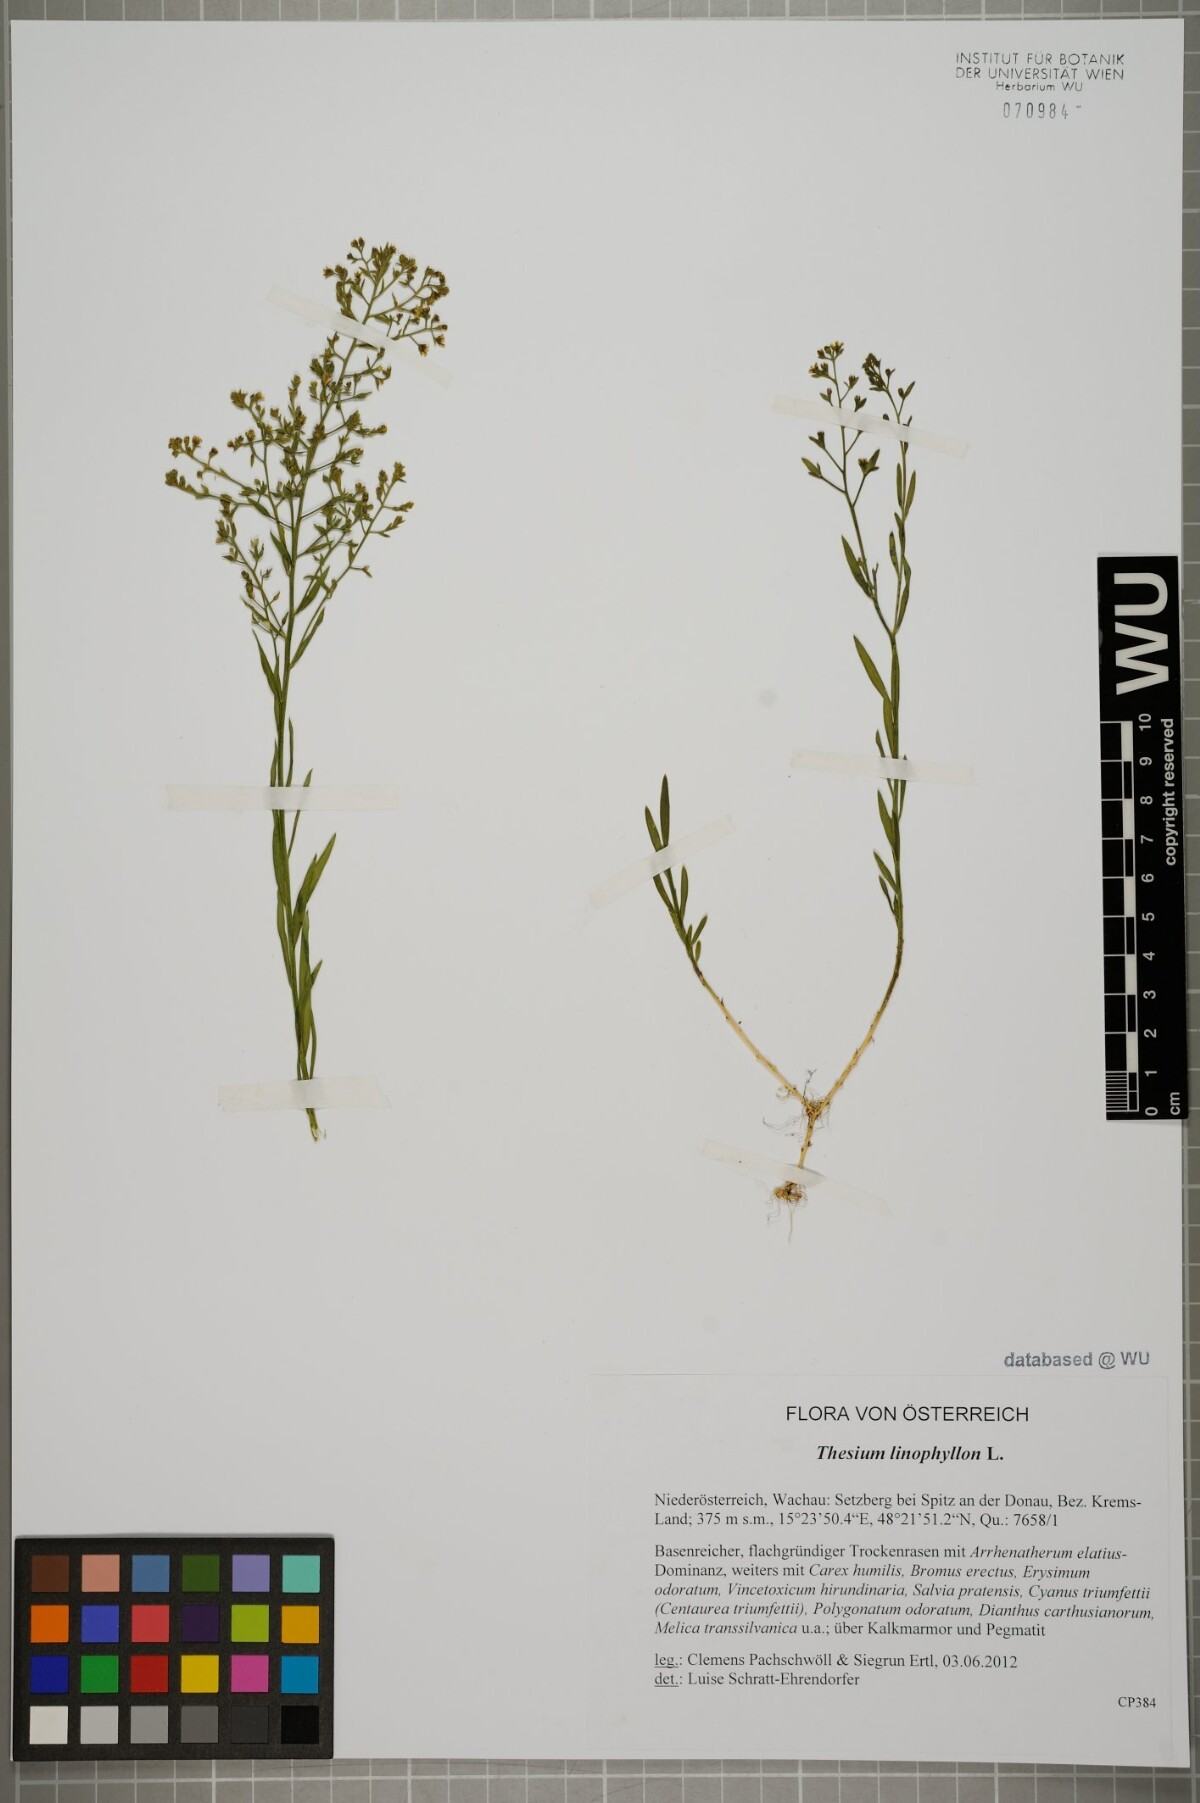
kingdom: Plantae
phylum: Tracheophyta
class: Magnoliopsida
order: Santalales
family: Thesiaceae
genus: Thesium
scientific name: Thesium linophyllon
